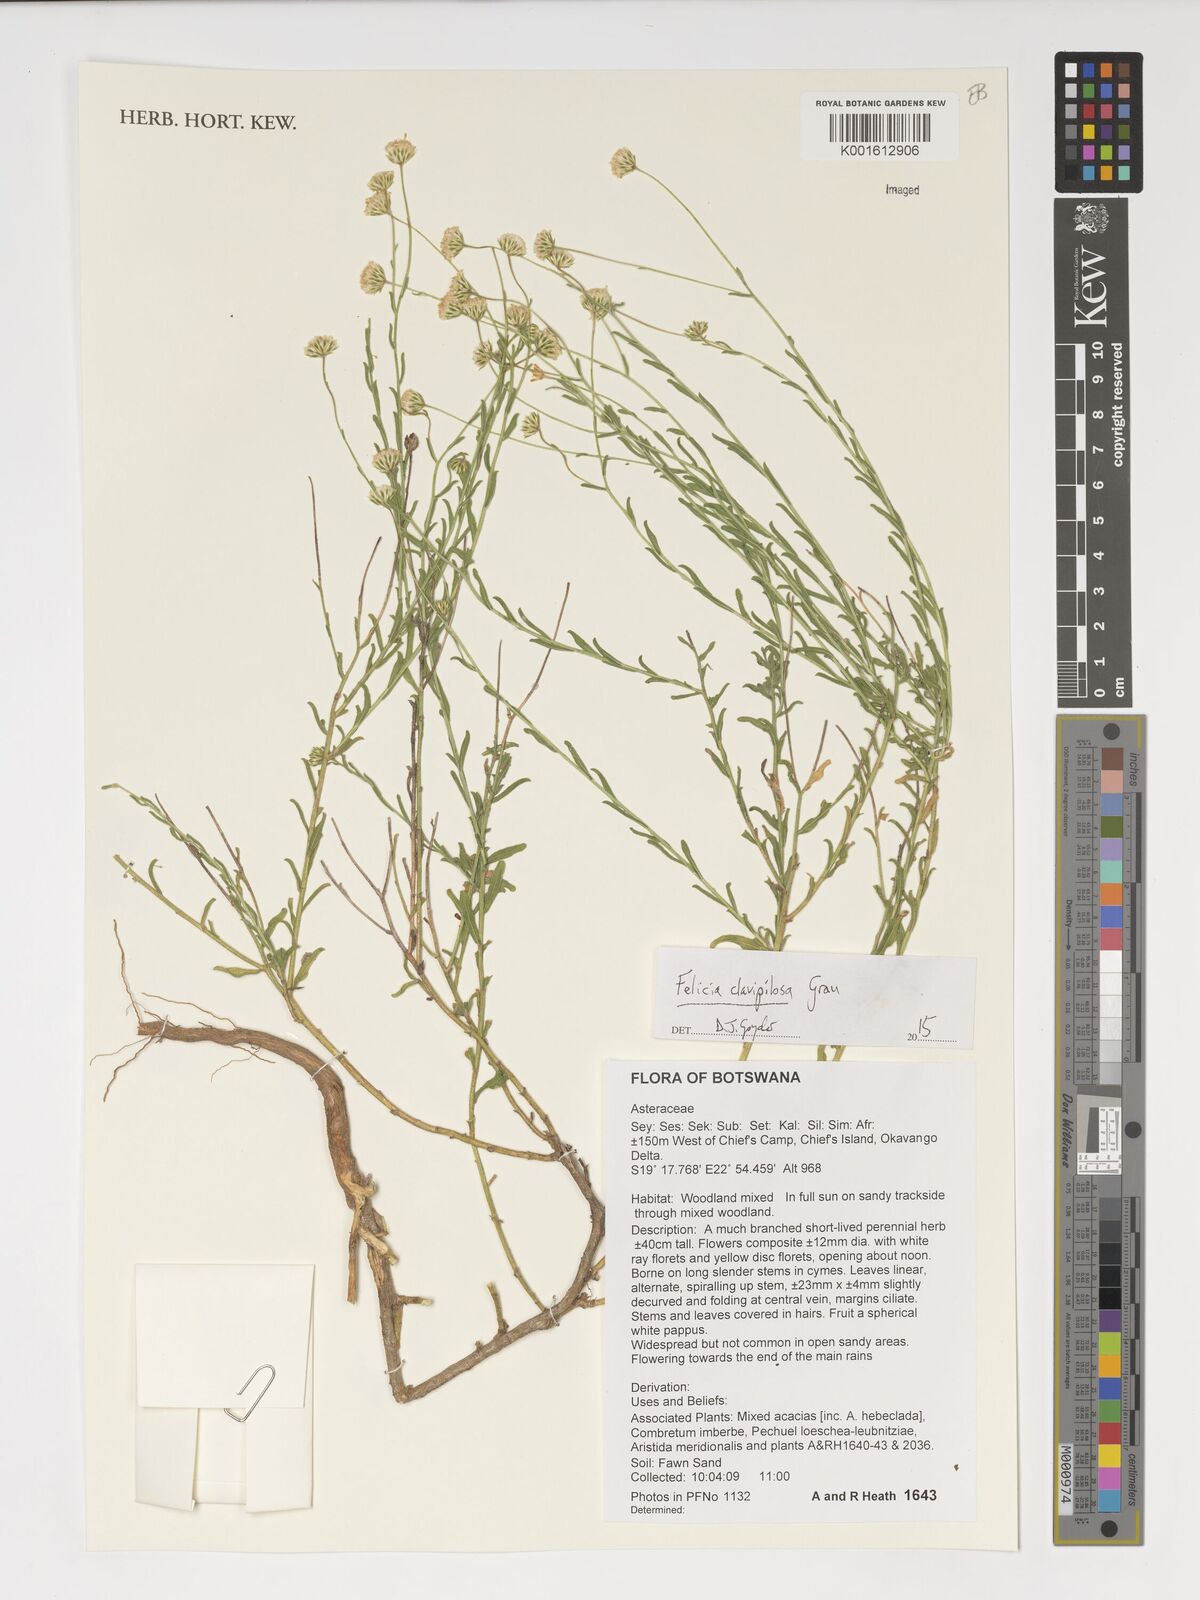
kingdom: Plantae
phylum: Tracheophyta
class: Magnoliopsida
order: Asterales
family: Asteraceae
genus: Felicia
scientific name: Felicia clavipilosa
